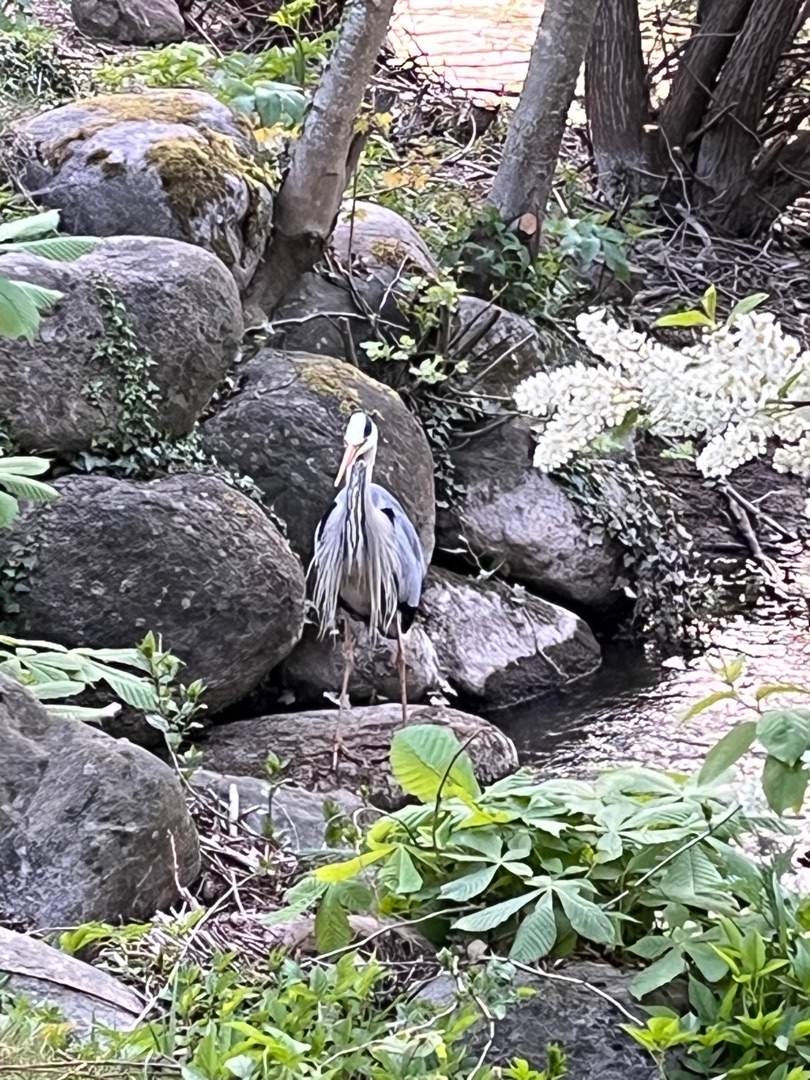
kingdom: Animalia
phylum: Chordata
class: Aves
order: Pelecaniformes
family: Ardeidae
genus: Ardea
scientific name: Ardea cinerea
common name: Fiskehejre
